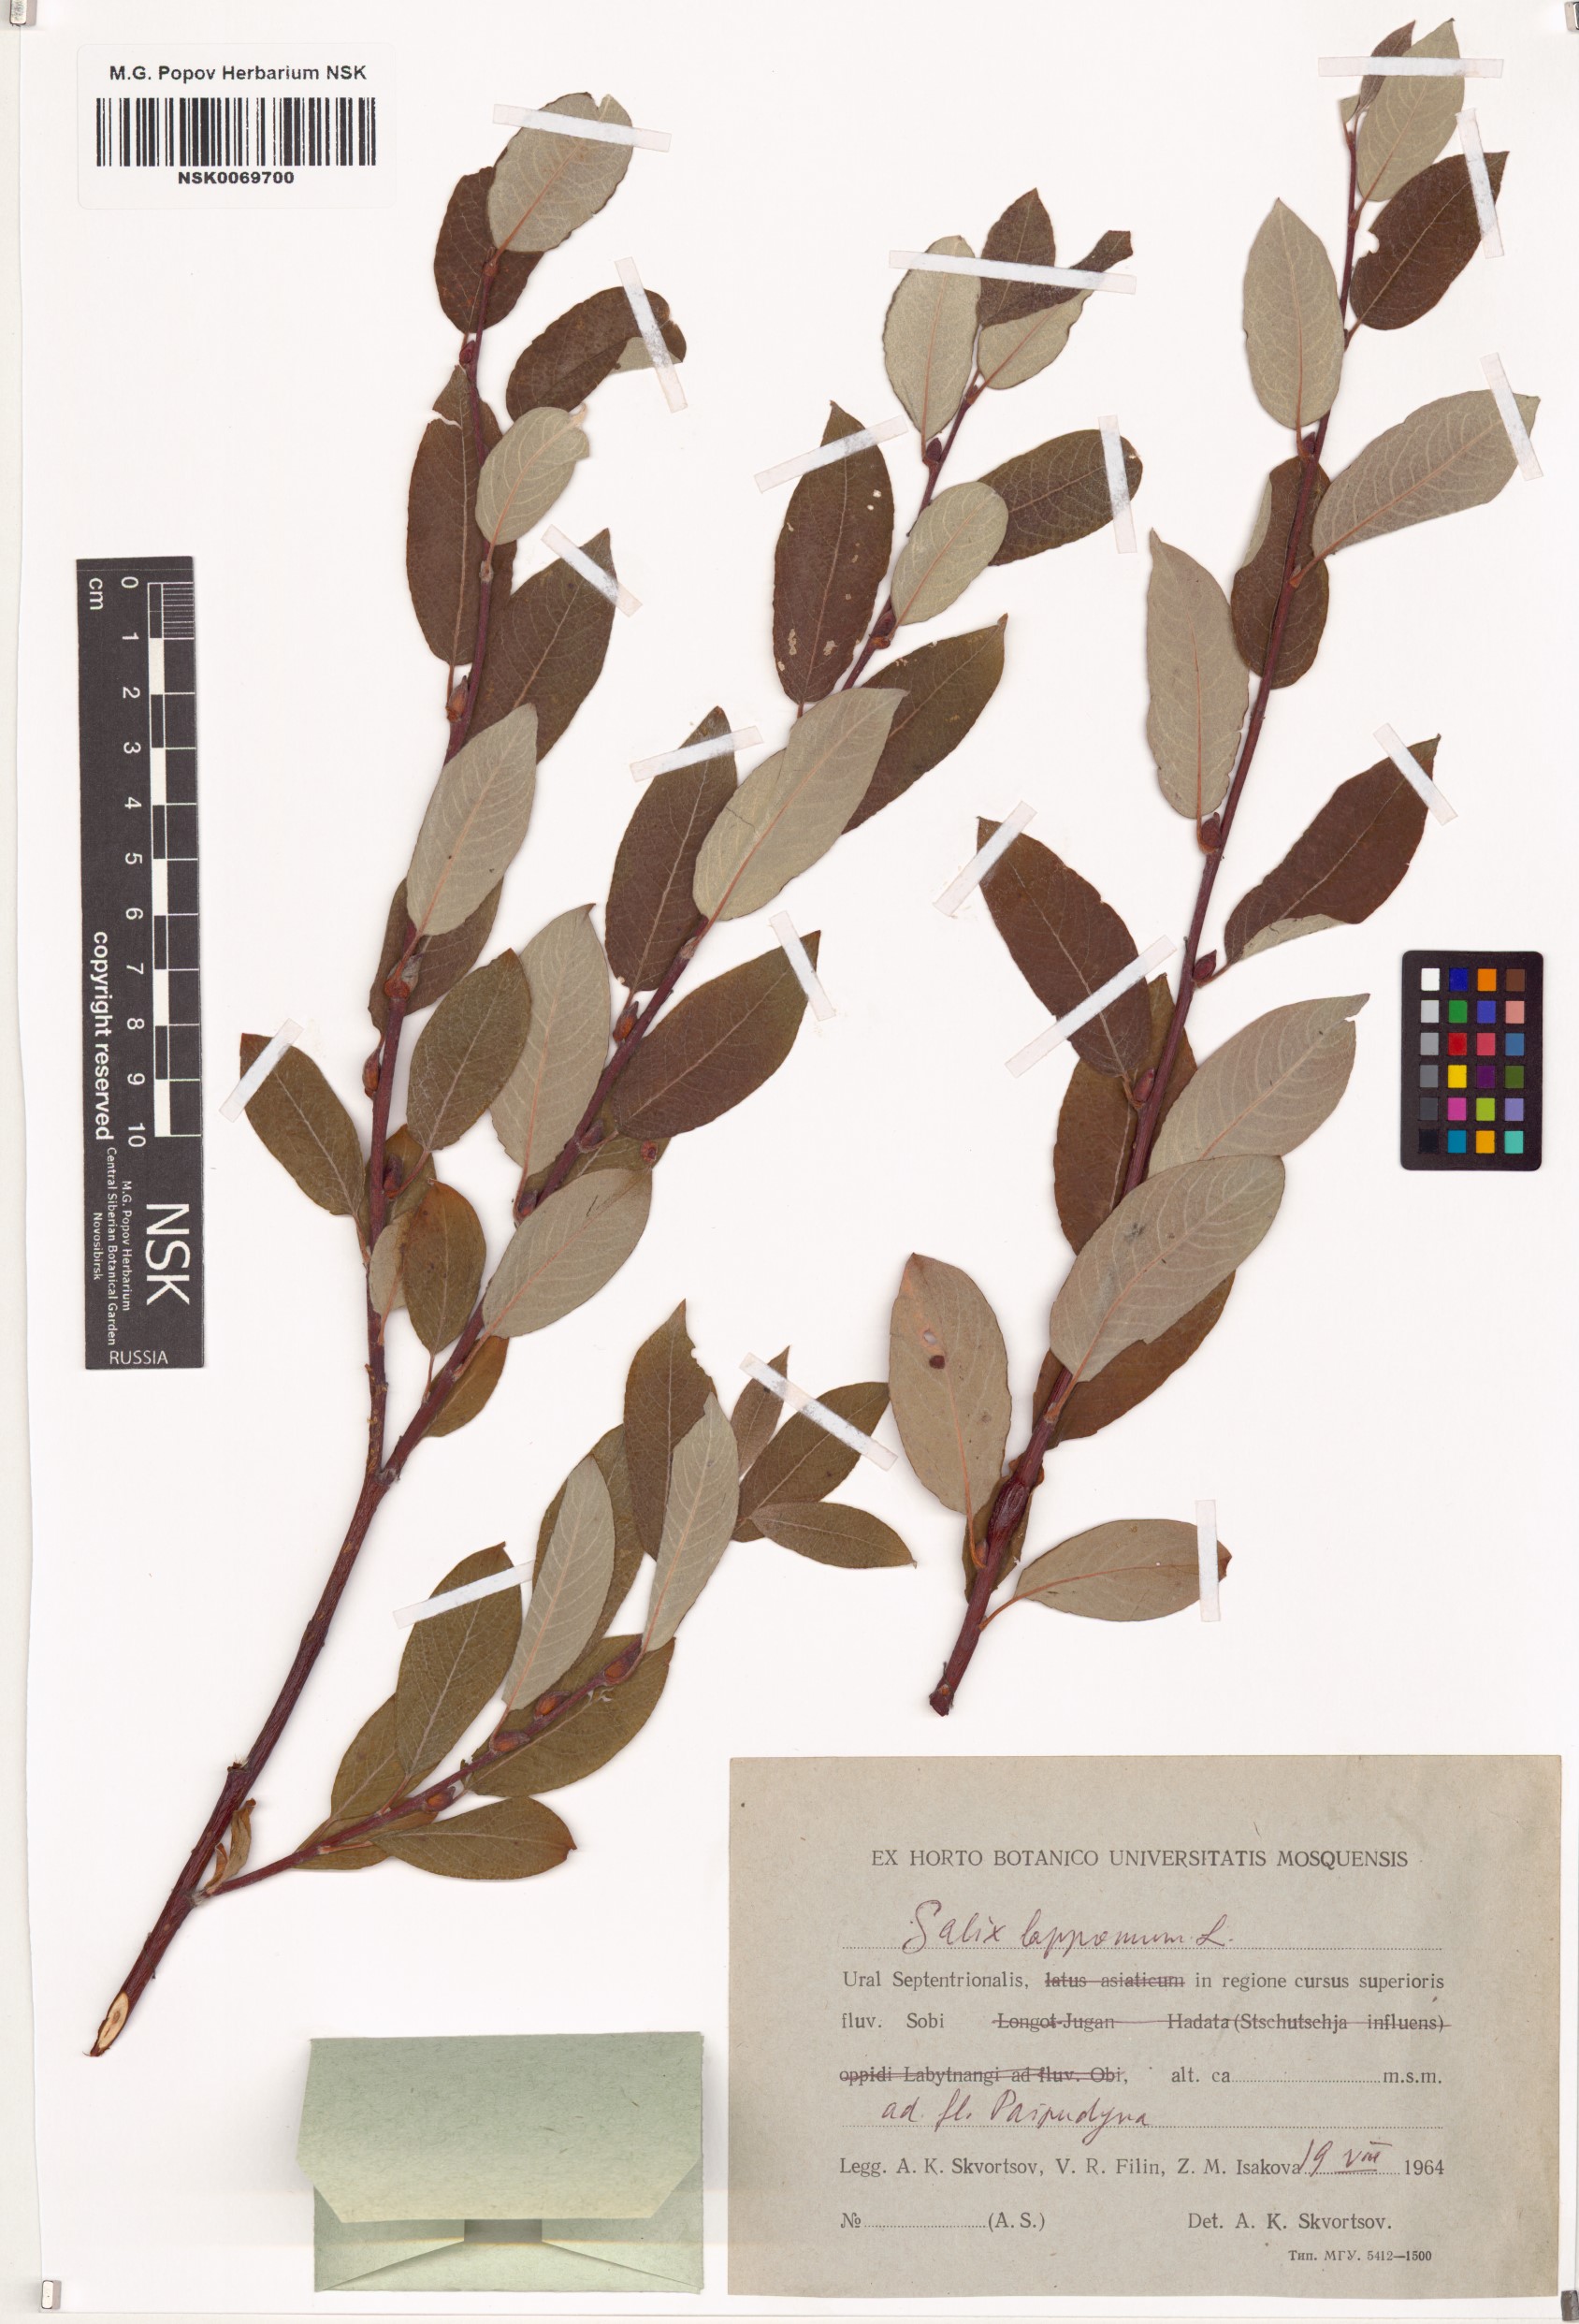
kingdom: Plantae
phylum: Tracheophyta
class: Magnoliopsida
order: Malpighiales
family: Salicaceae
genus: Salix
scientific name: Salix lapponum
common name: Downy willow
